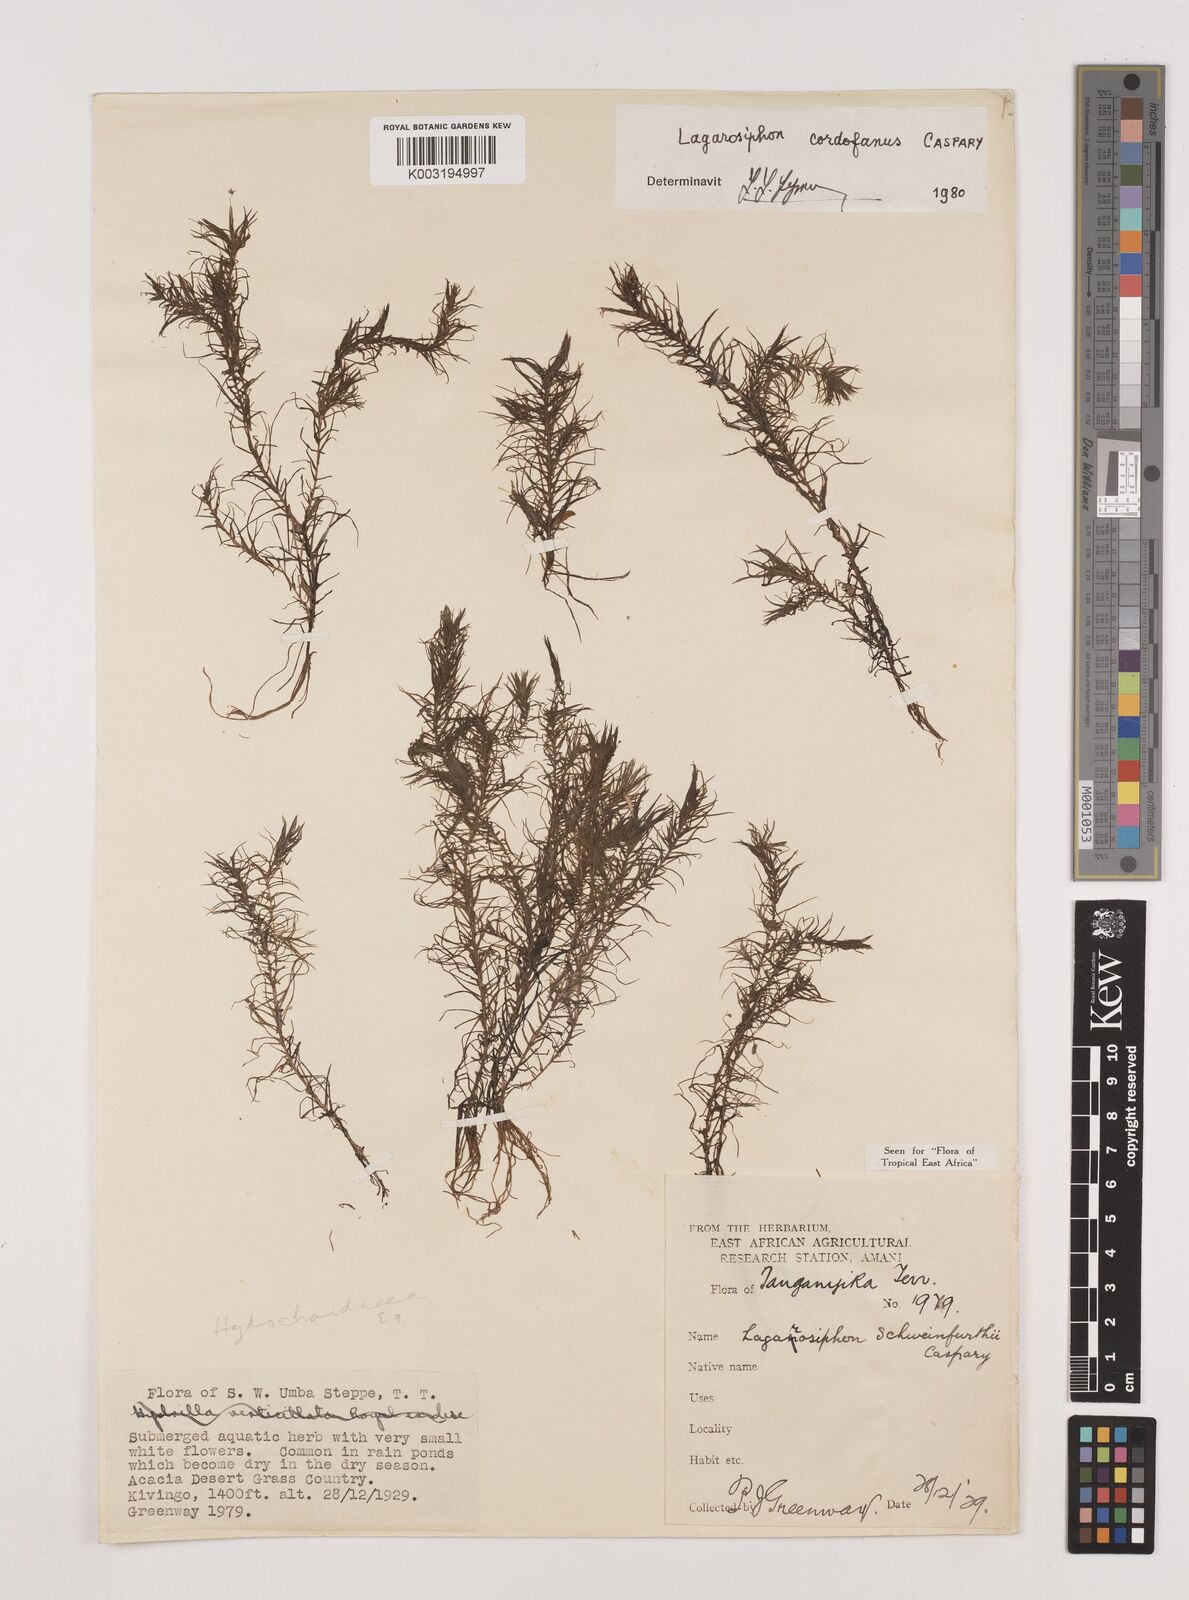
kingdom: Plantae
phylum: Tracheophyta
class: Liliopsida
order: Alismatales
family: Hydrocharitaceae
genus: Lagarosiphon
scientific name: Lagarosiphon cordofanus
